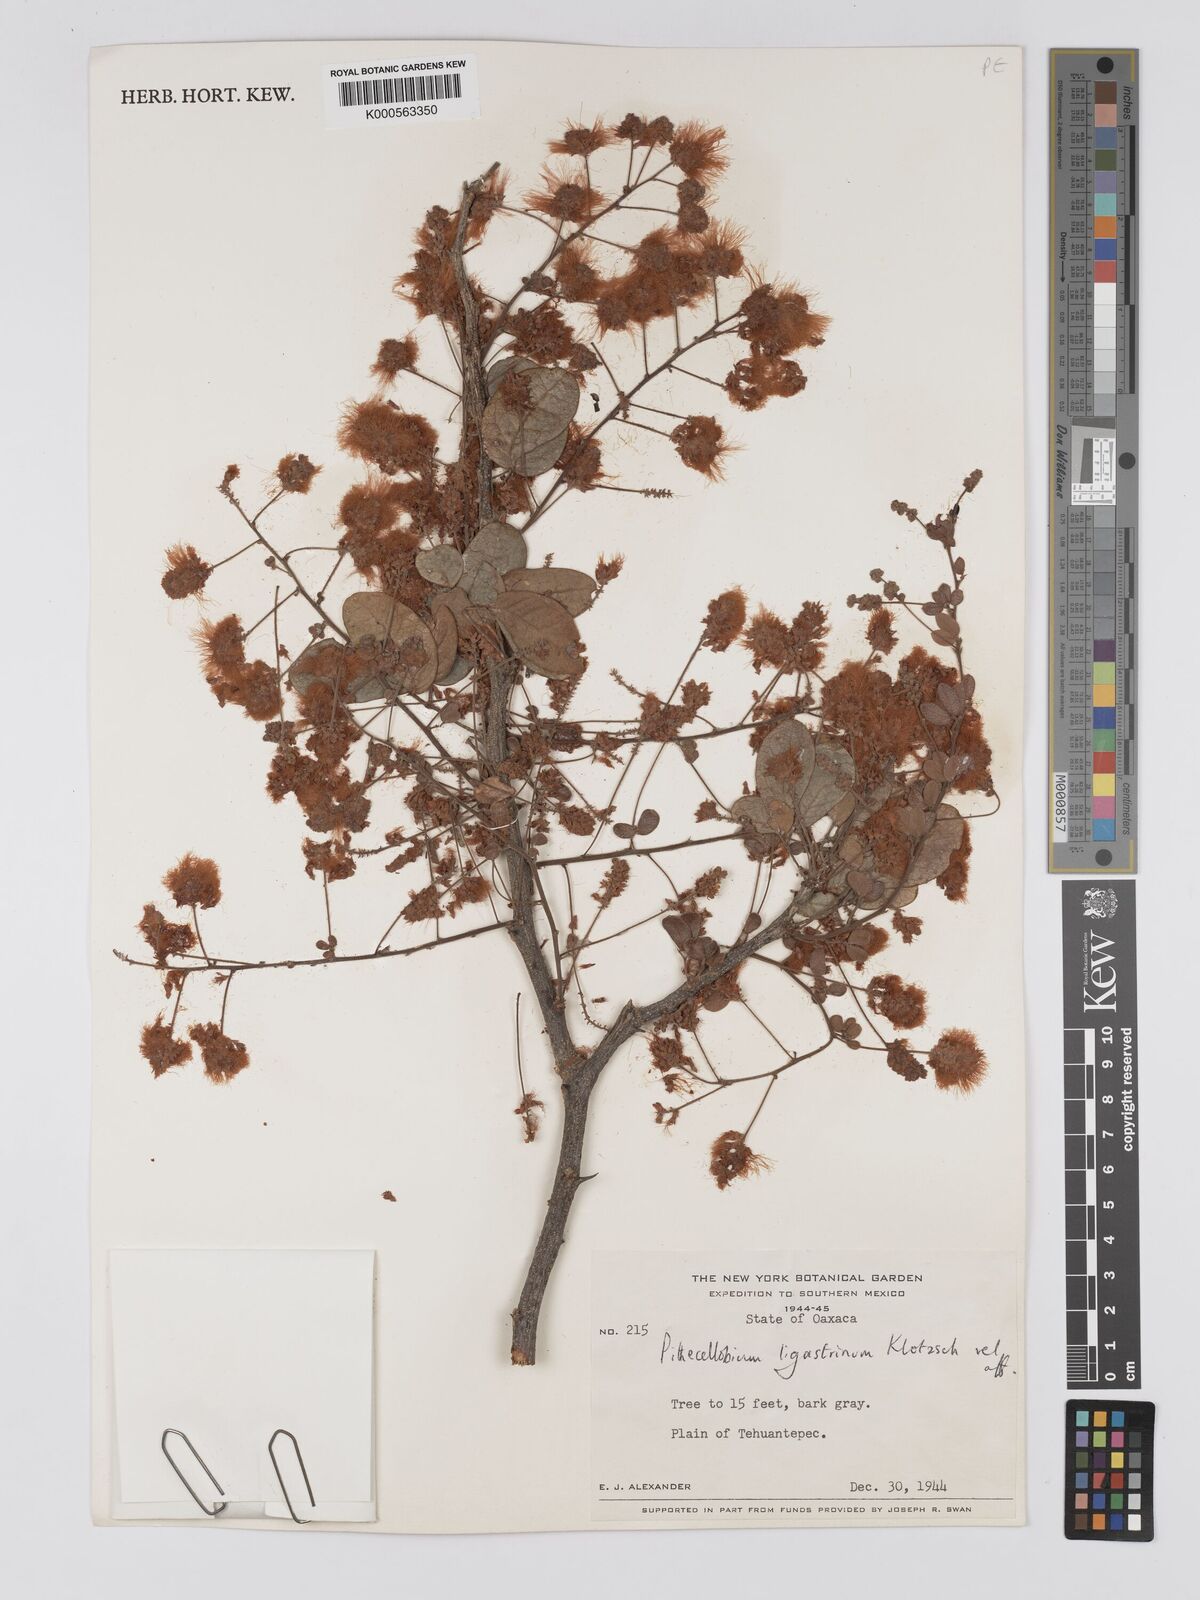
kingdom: Plantae
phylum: Tracheophyta
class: Magnoliopsida
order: Fabales
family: Fabaceae
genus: Pithecellobium
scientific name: Pithecellobium unguis-cati
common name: Cat's-claw
